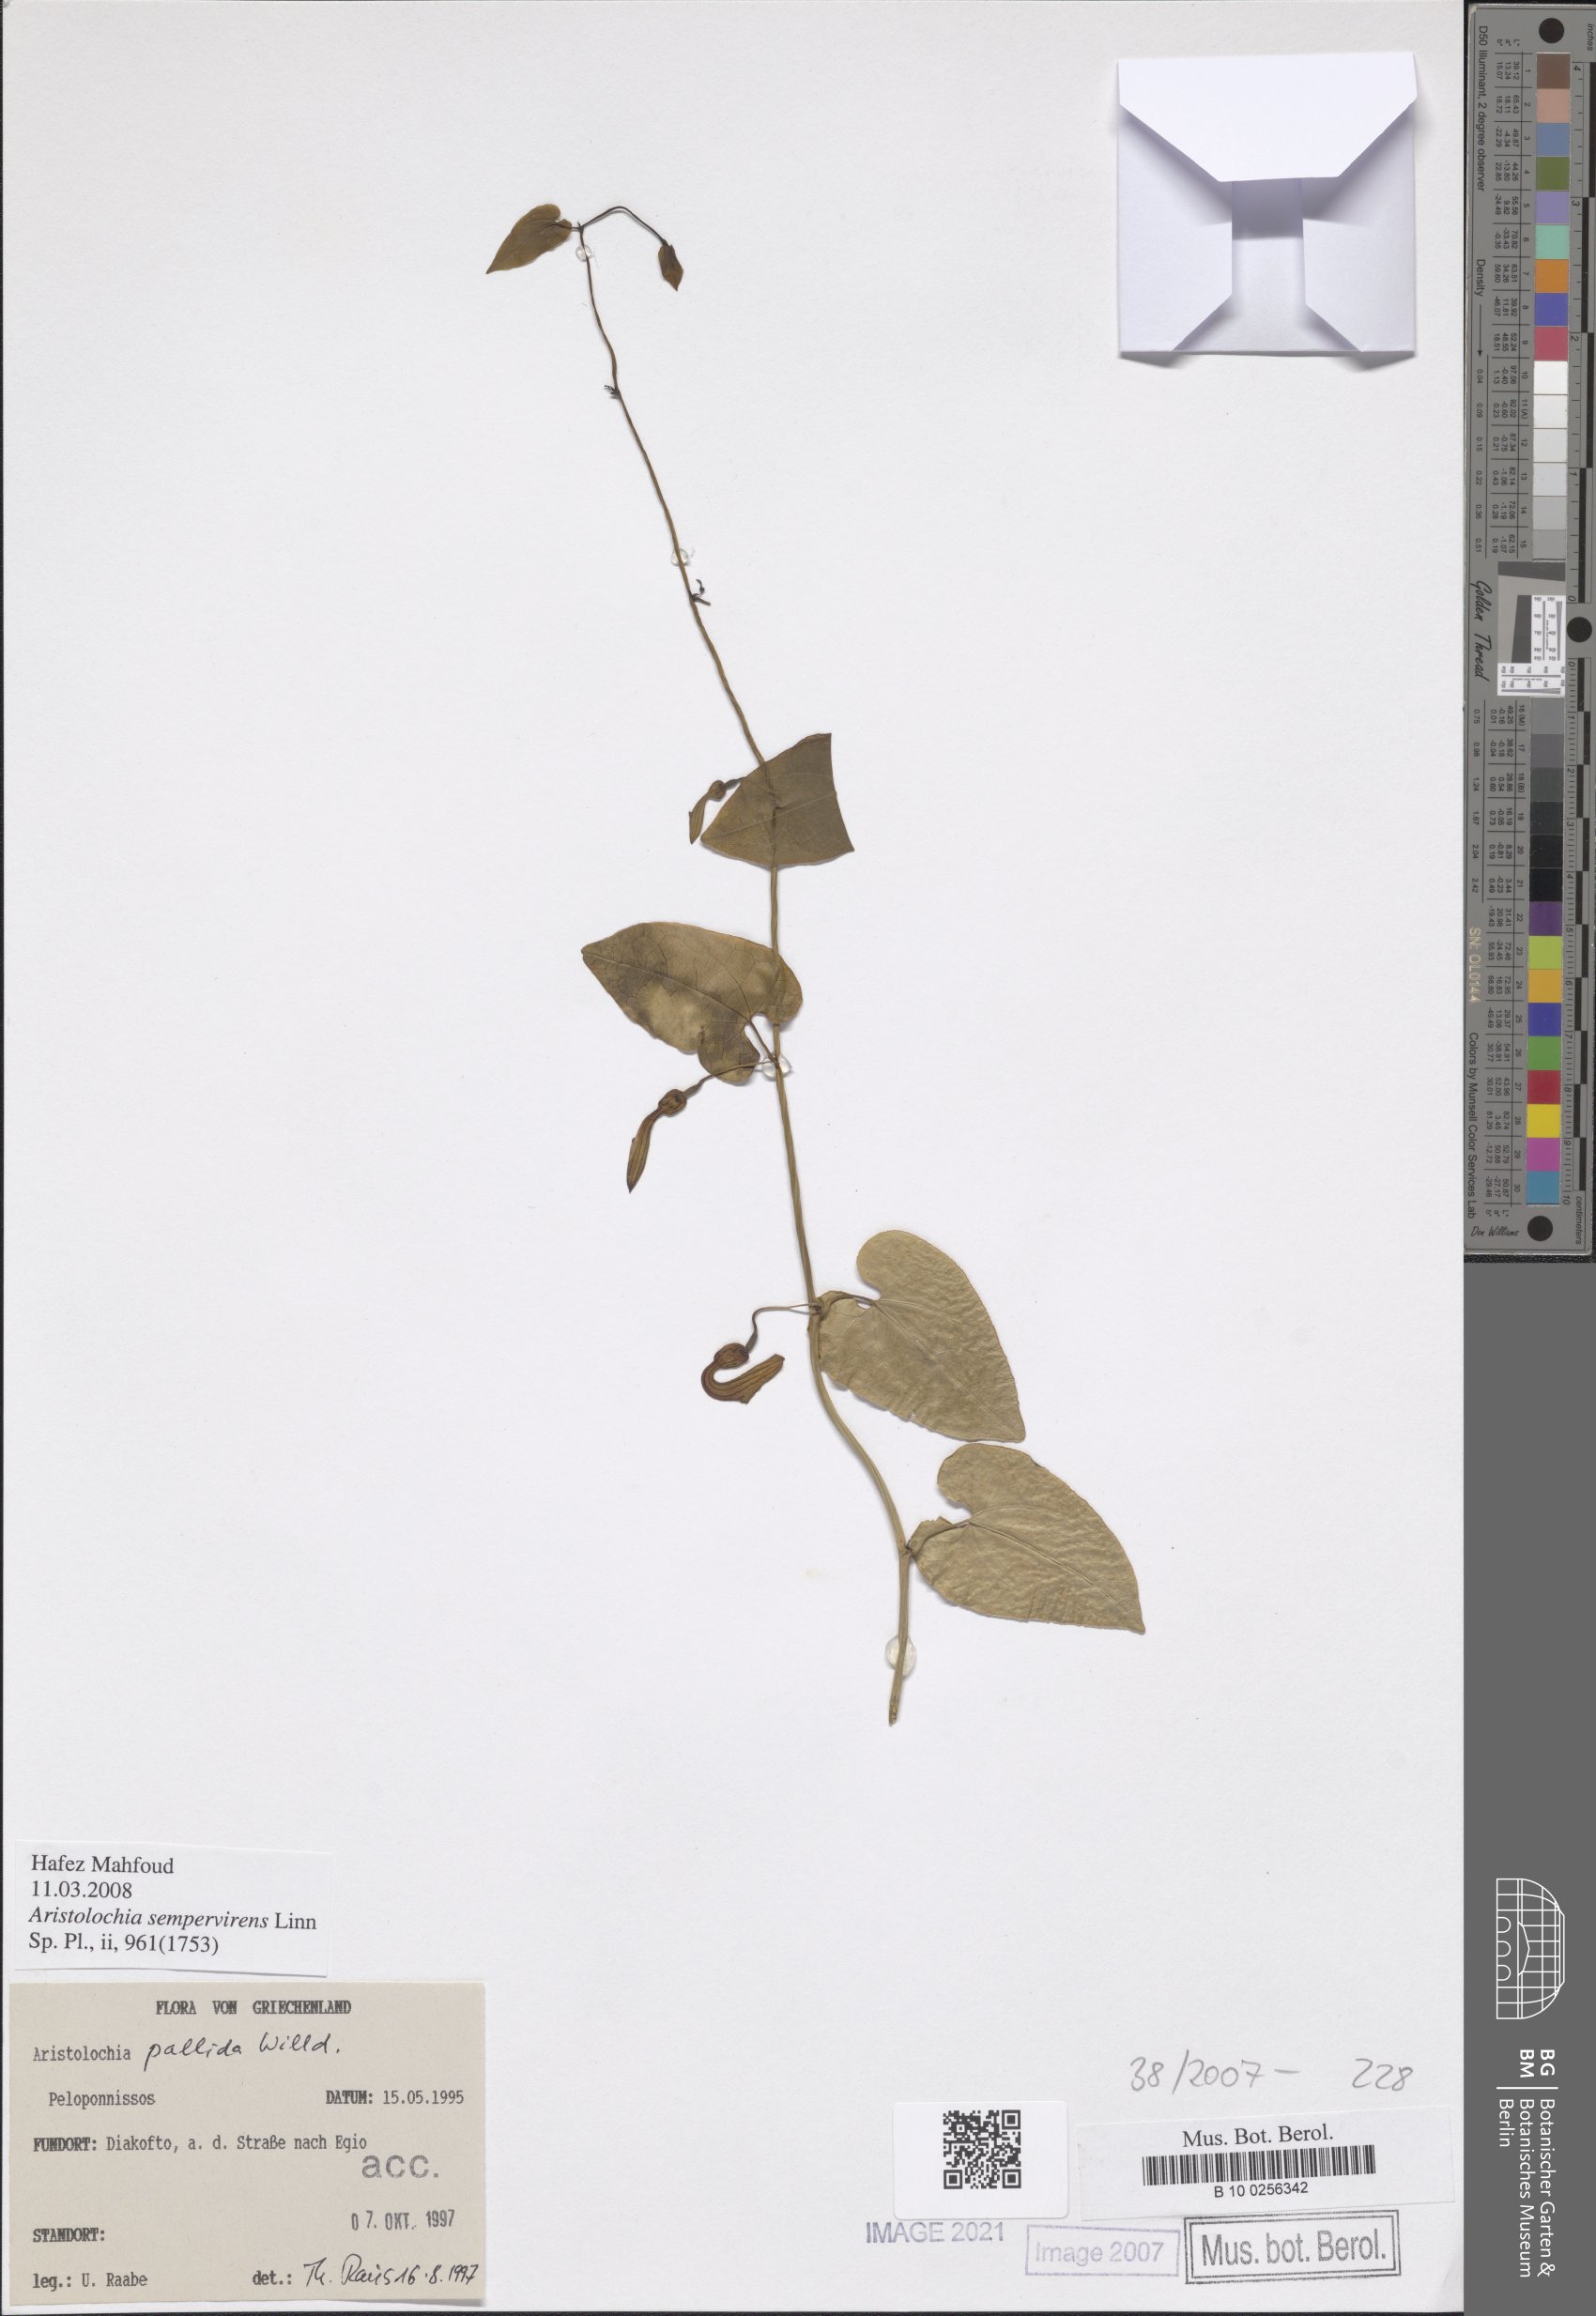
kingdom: Plantae
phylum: Tracheophyta
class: Magnoliopsida
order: Piperales
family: Aristolochiaceae
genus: Aristolochia
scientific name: Aristolochia sempervirens
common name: Long birthwort
